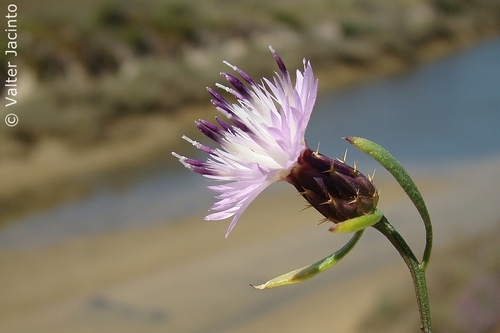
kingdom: Plantae
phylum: Tracheophyta
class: Magnoliopsida
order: Asterales
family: Asteraceae
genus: Centaurea
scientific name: Centaurea aspera
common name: Rough star-thistle
